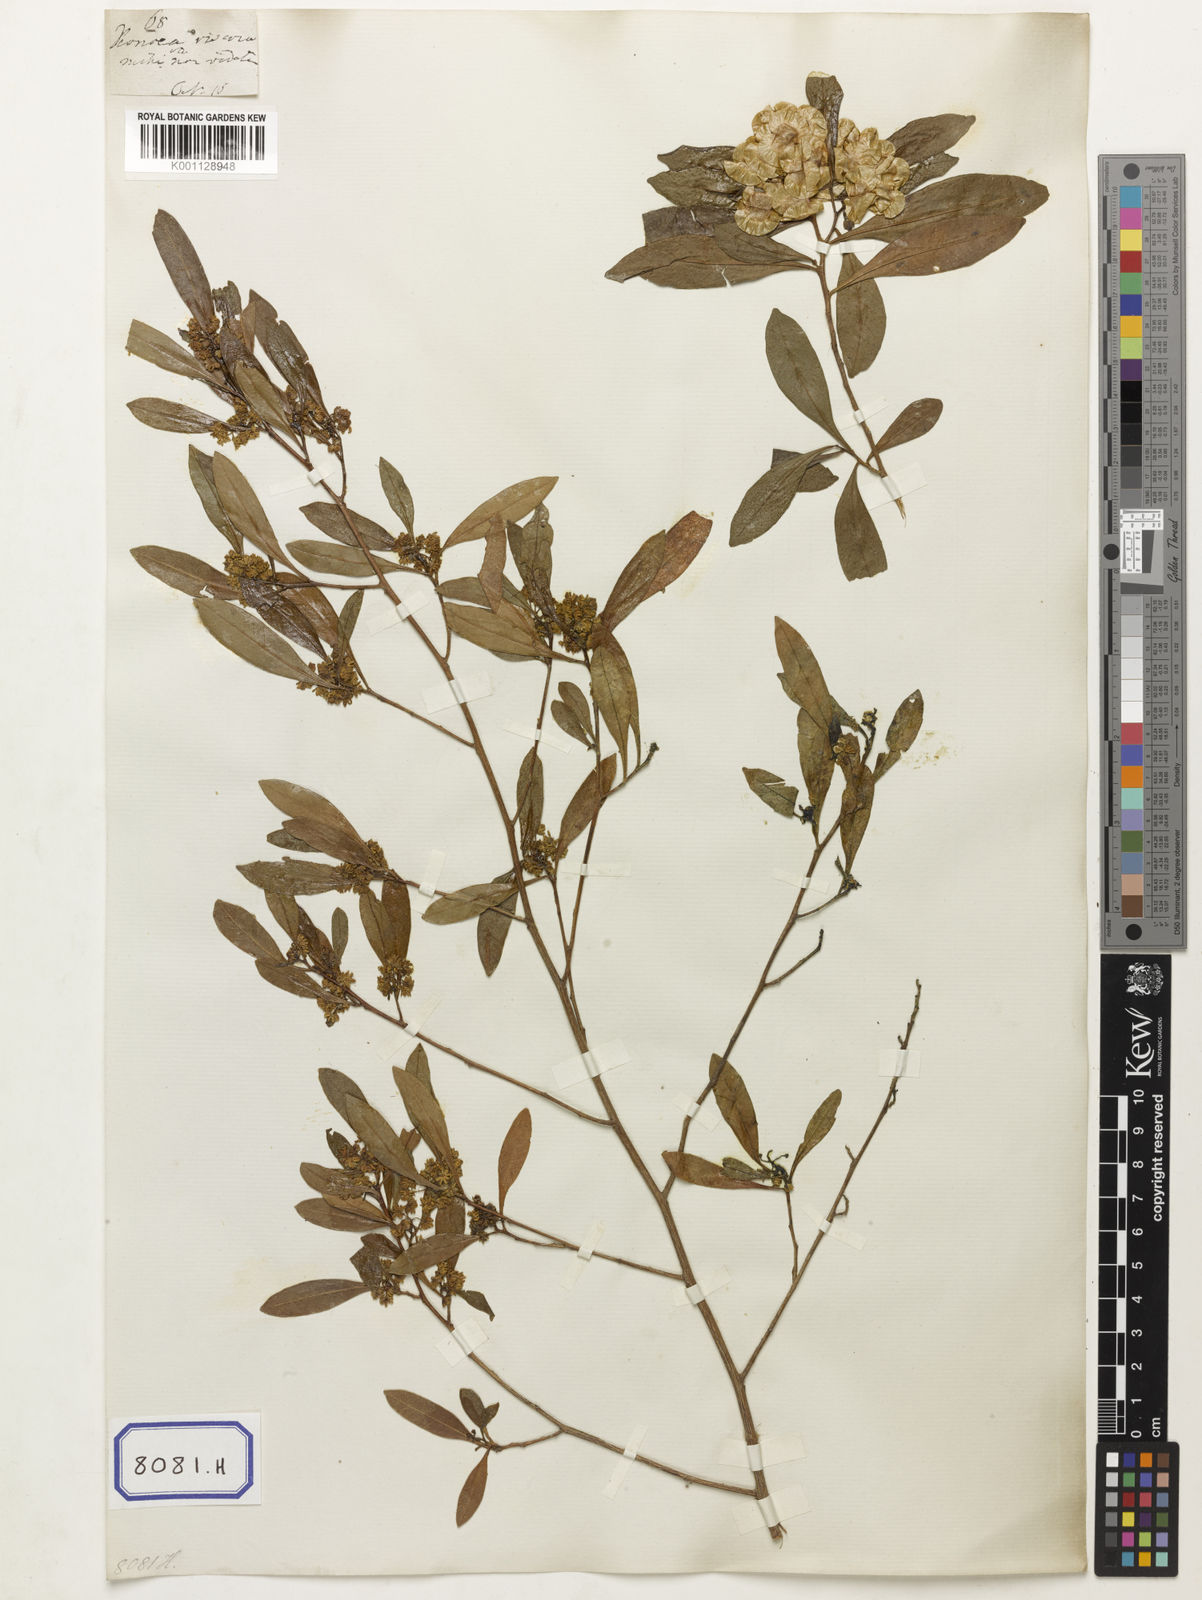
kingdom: Plantae
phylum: Tracheophyta
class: Magnoliopsida
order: Sapindales
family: Sapindaceae
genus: Dodonaea
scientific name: Dodonaea
